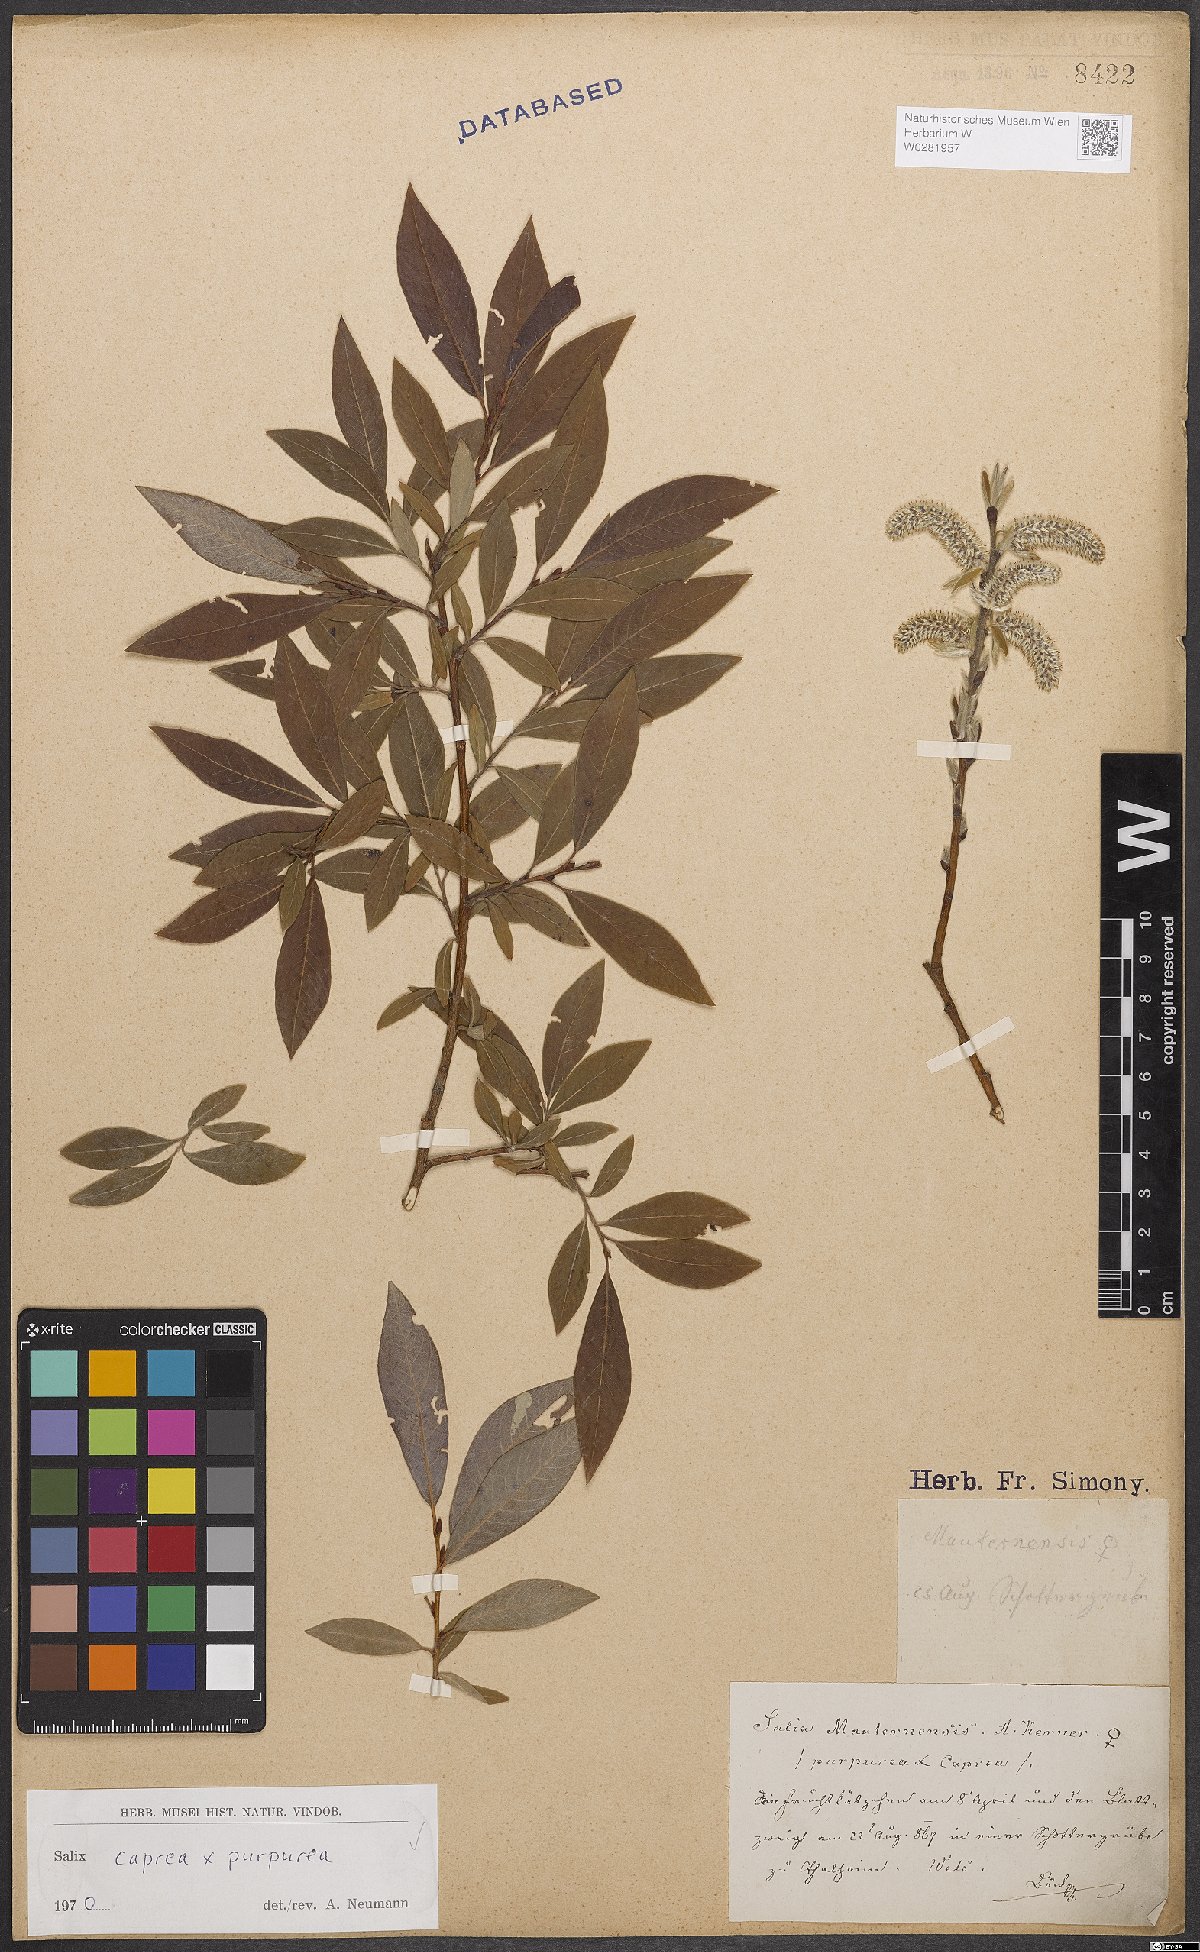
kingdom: Plantae
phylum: Tracheophyta
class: Magnoliopsida
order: Malpighiales
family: Salicaceae
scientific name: Salicaceae
